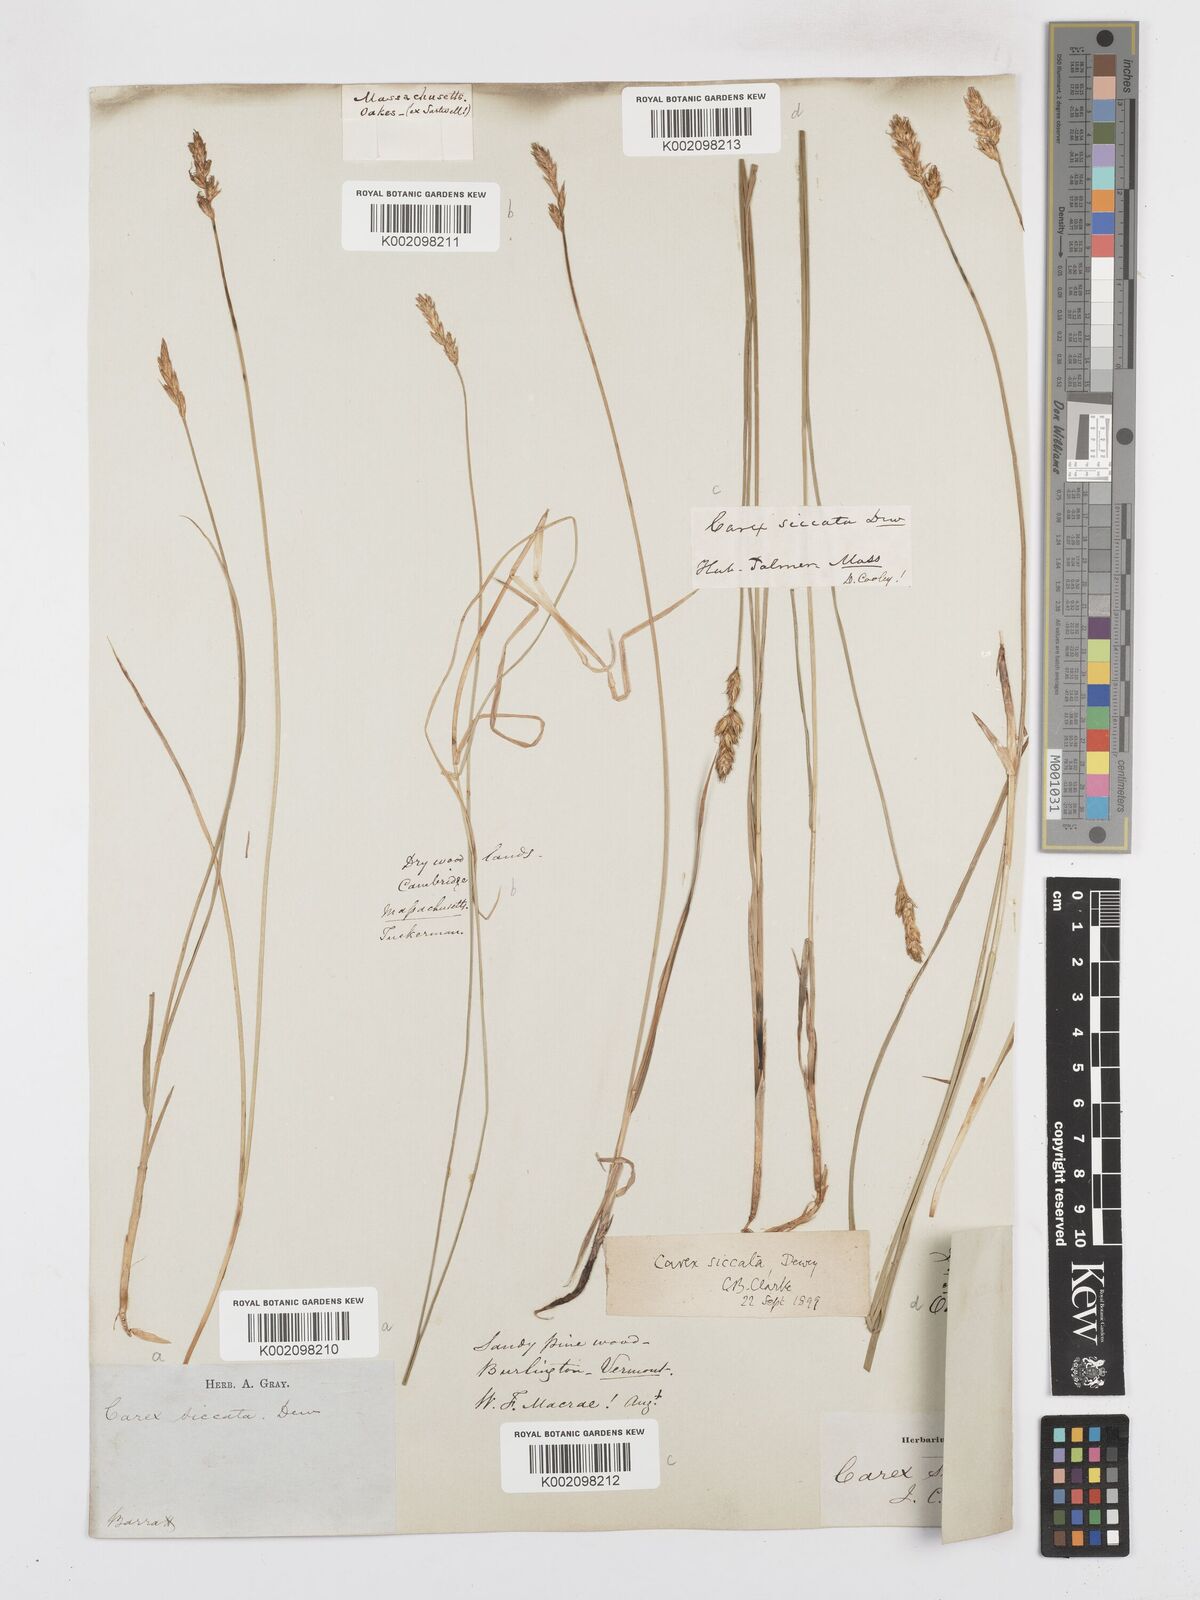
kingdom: Plantae
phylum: Tracheophyta
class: Liliopsida
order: Poales
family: Cyperaceae
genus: Carex
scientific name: Carex foenea
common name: Bronze sedge
